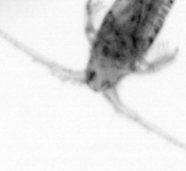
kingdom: Animalia
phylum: Arthropoda
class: Copepoda
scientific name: Copepoda
